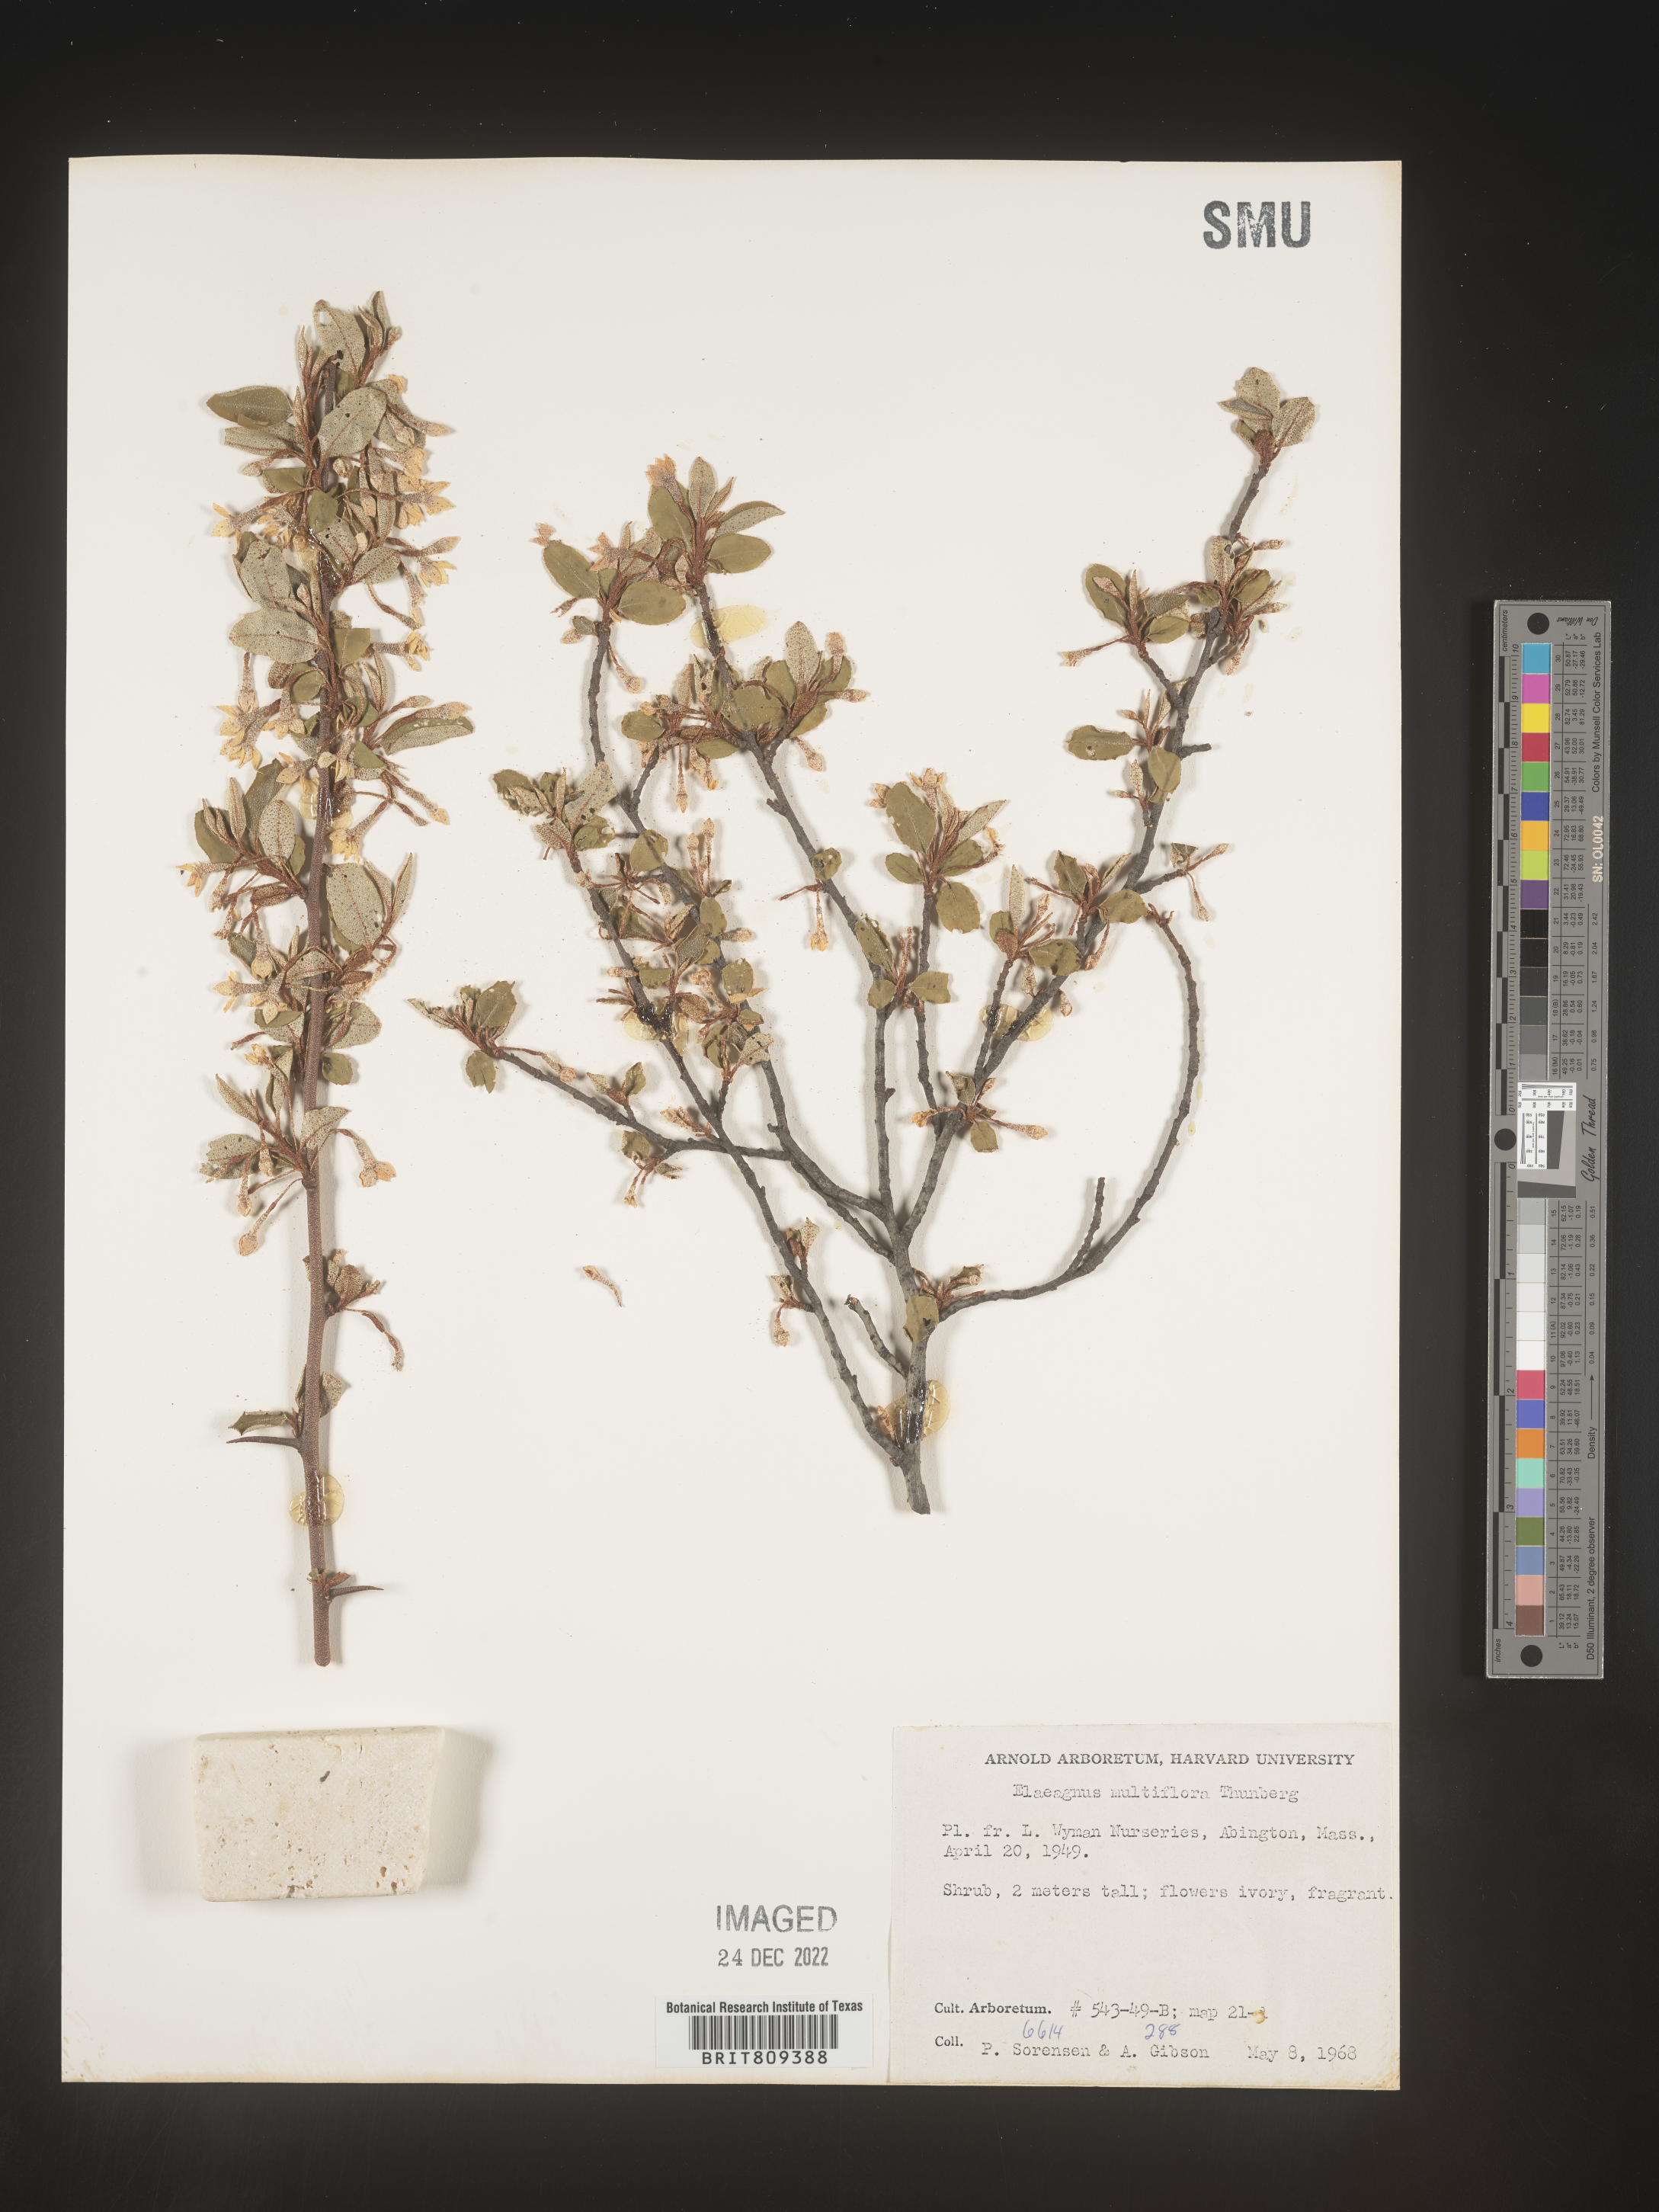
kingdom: Plantae
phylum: Tracheophyta
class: Magnoliopsida
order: Rosales
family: Elaeagnaceae
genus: Elaeagnus
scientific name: Elaeagnus
